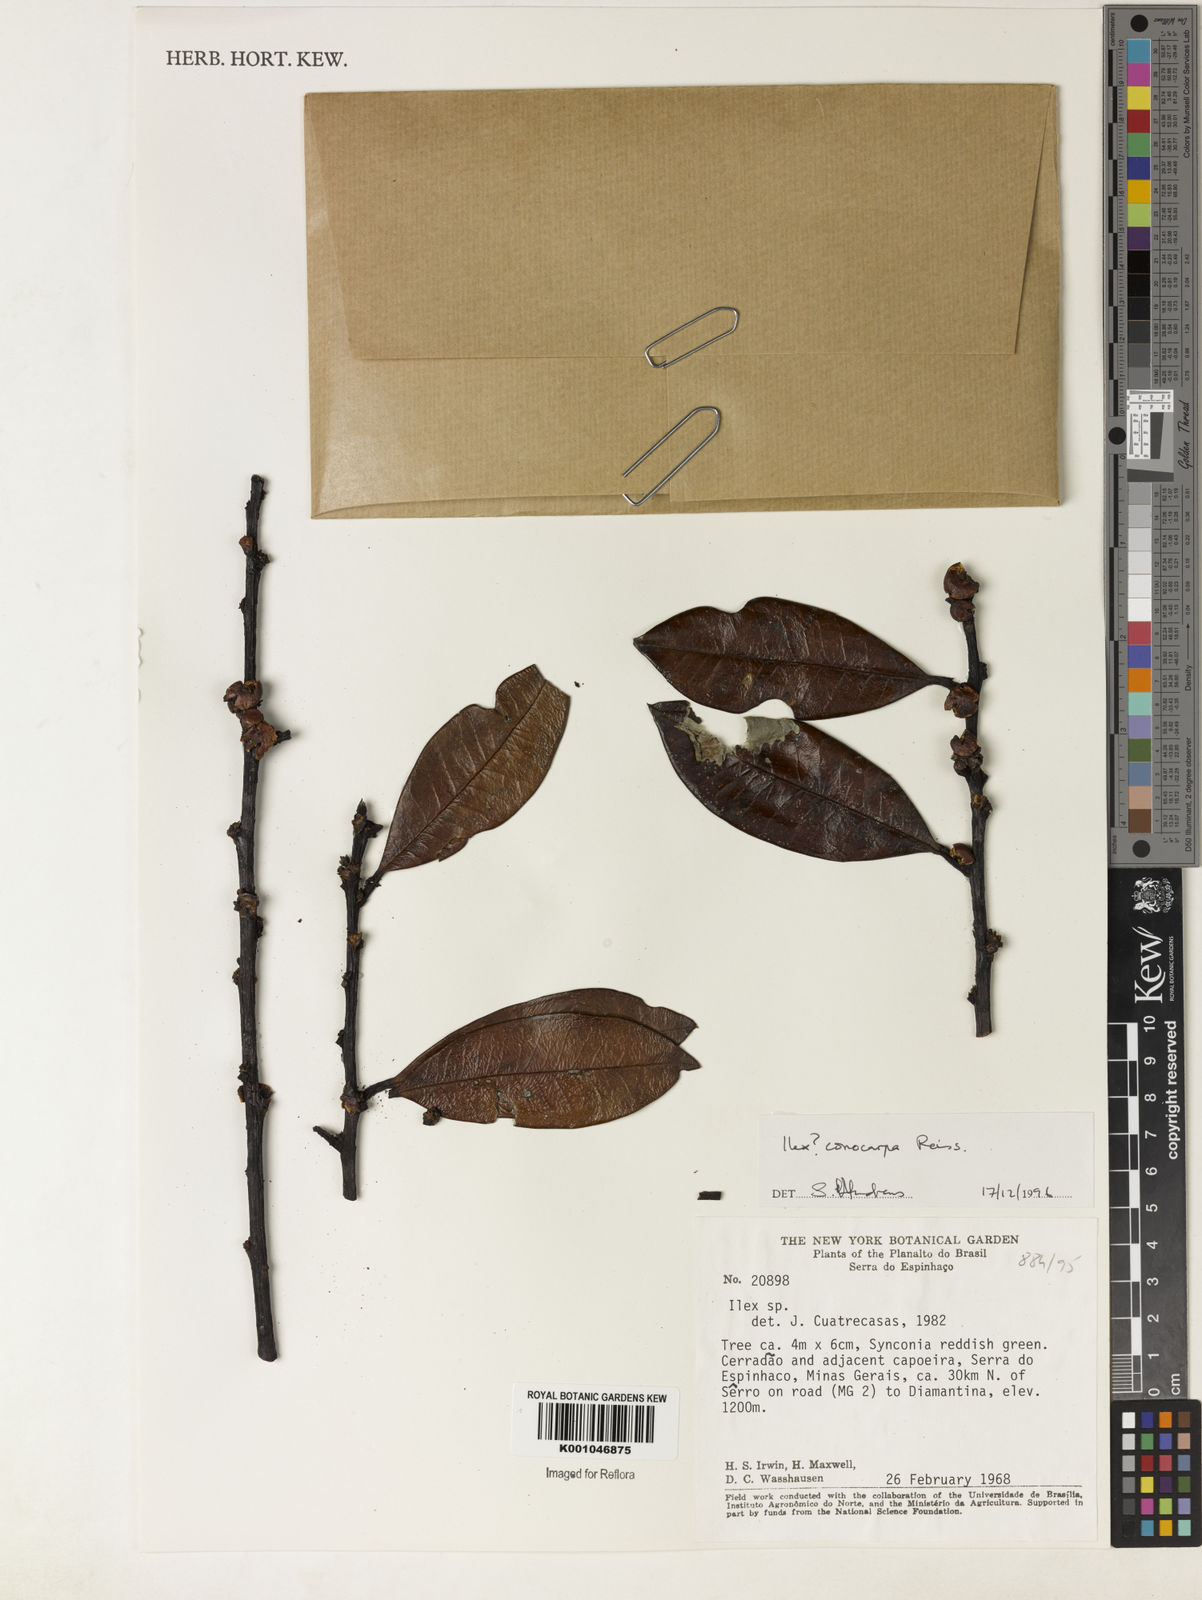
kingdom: Plantae
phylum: Tracheophyta
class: Magnoliopsida
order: Aquifoliales
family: Aquifoliaceae
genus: Ilex
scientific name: Ilex conocarpa
